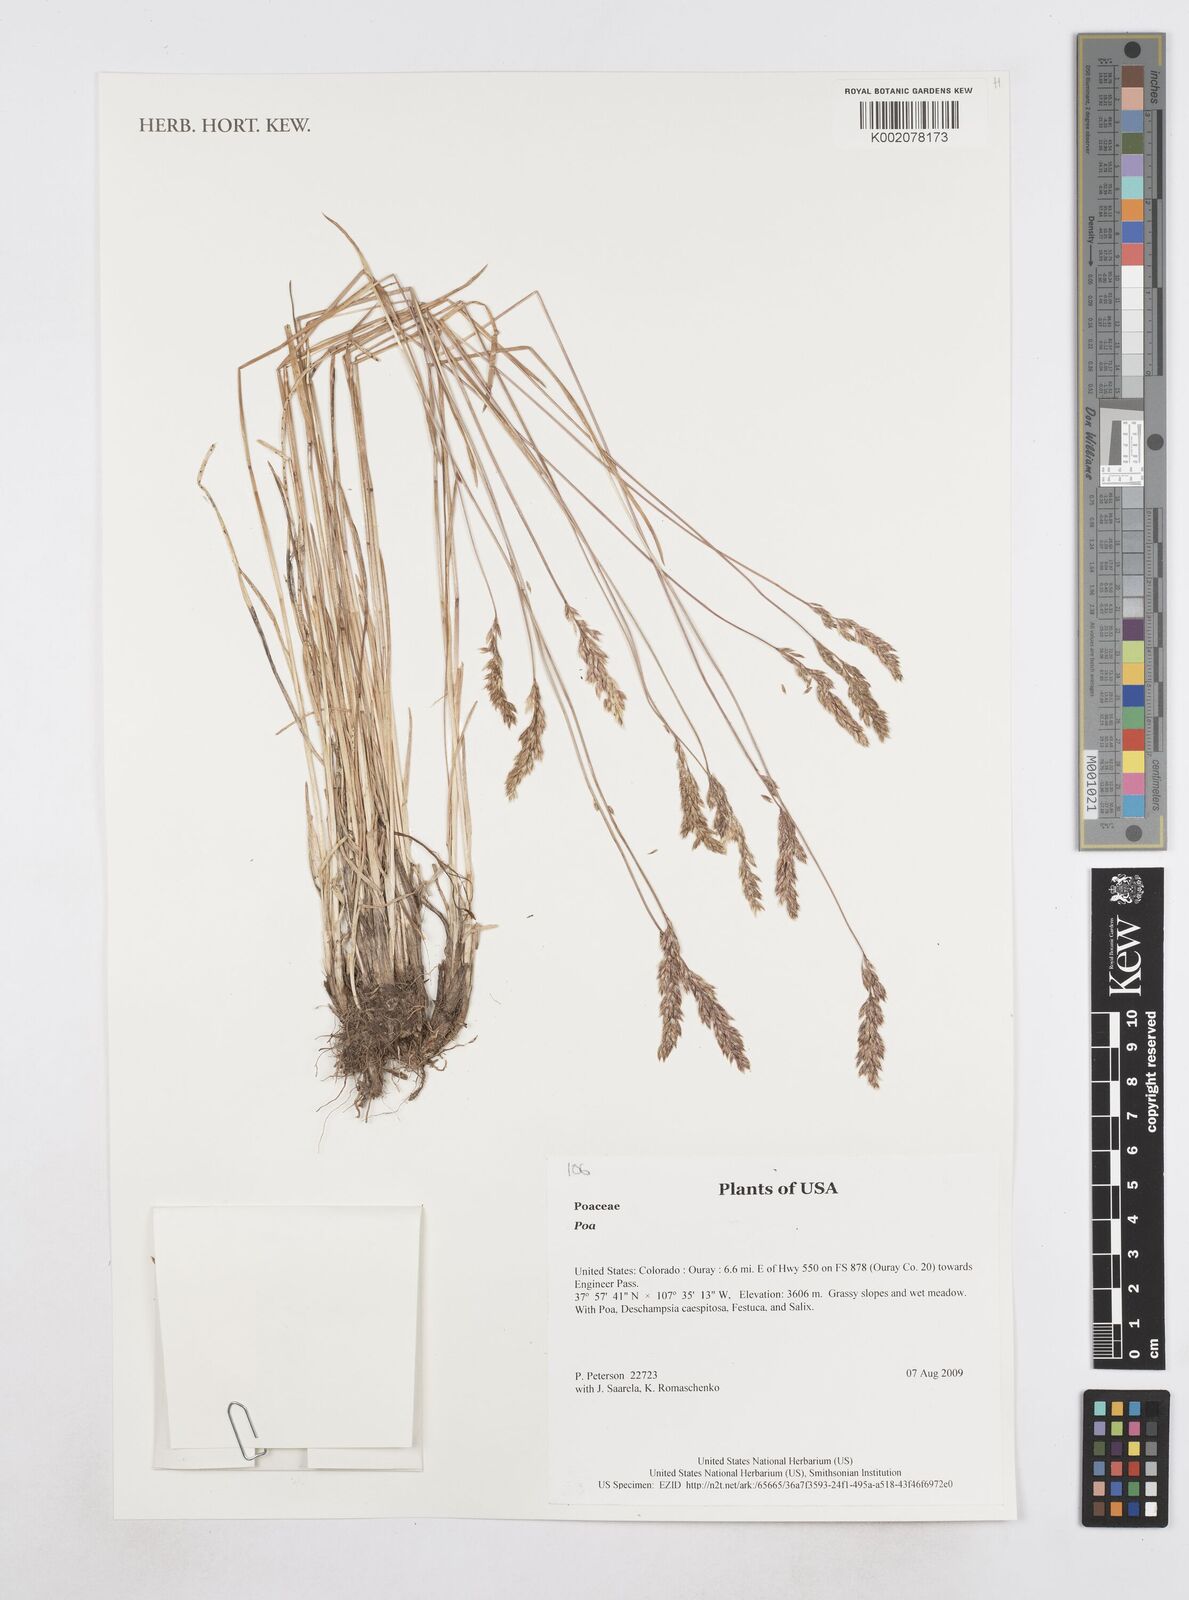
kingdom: Plantae
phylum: Tracheophyta
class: Liliopsida
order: Poales
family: Poaceae
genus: Poa
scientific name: Poa
